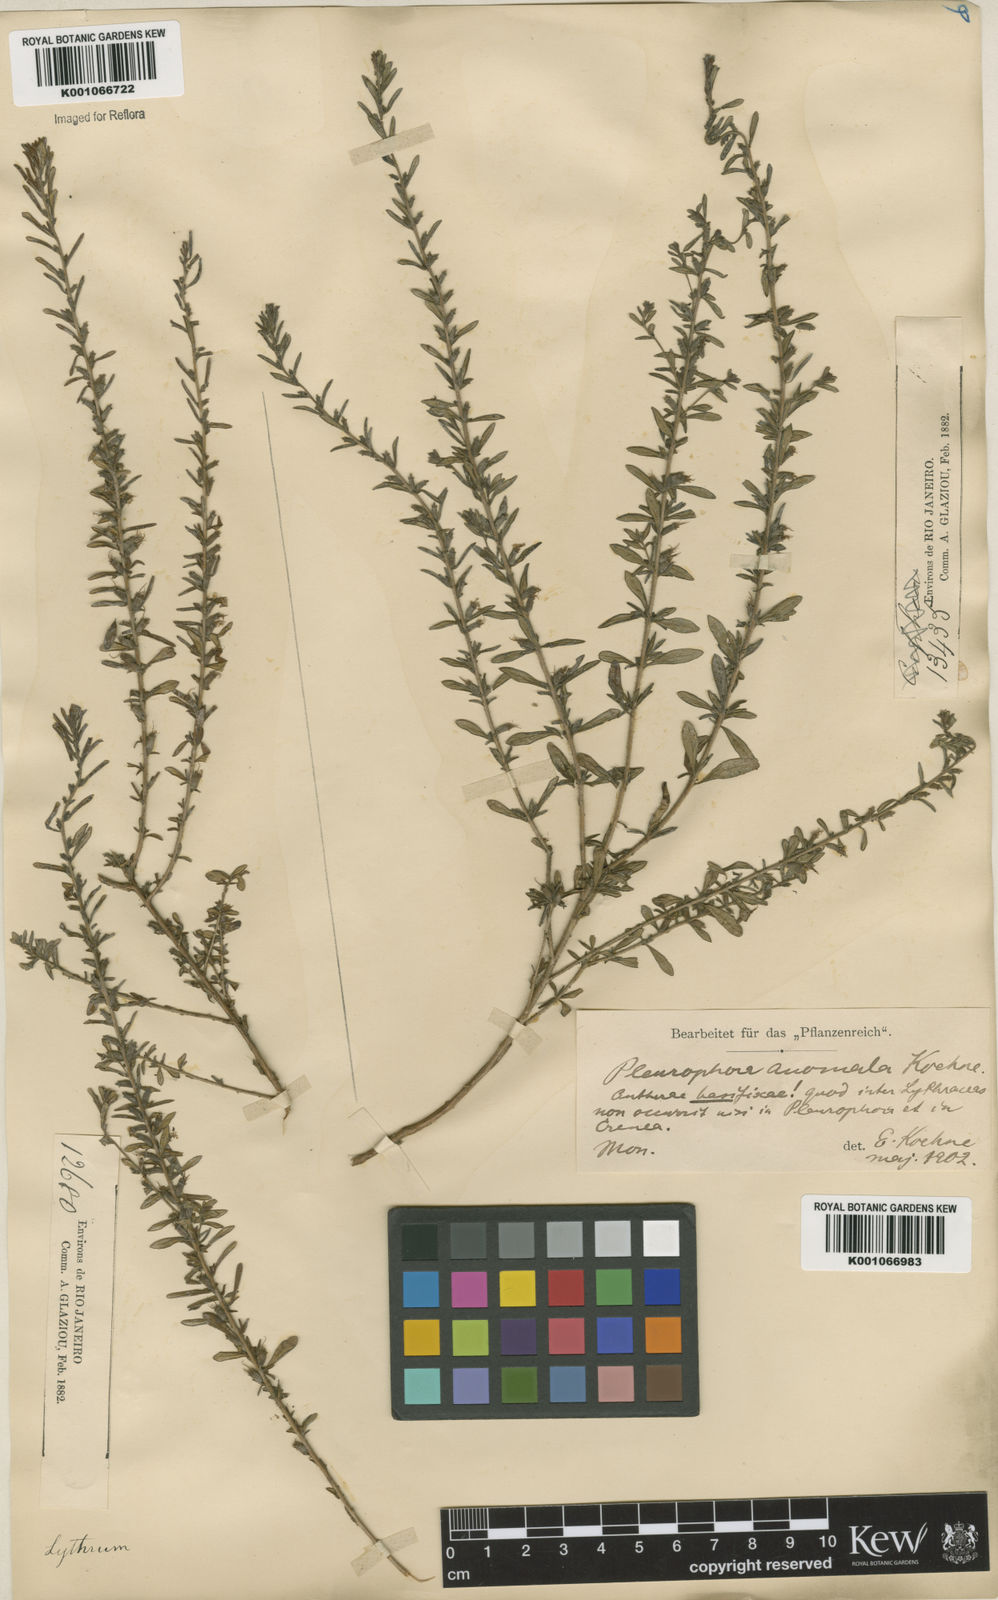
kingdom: Plantae
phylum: Tracheophyta
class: Magnoliopsida
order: Myrtales
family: Lythraceae
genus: Pleurophora
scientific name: Pleurophora anomala
